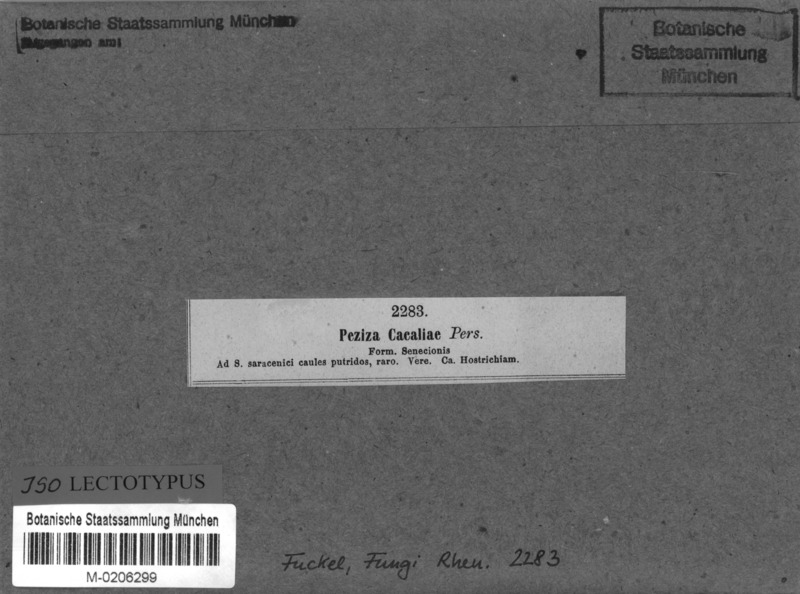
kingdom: Fungi
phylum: Ascomycota
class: Leotiomycetes
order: Helotiales
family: Helotiaceae
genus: Cyathicula
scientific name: Cyathicula cyathoidea
